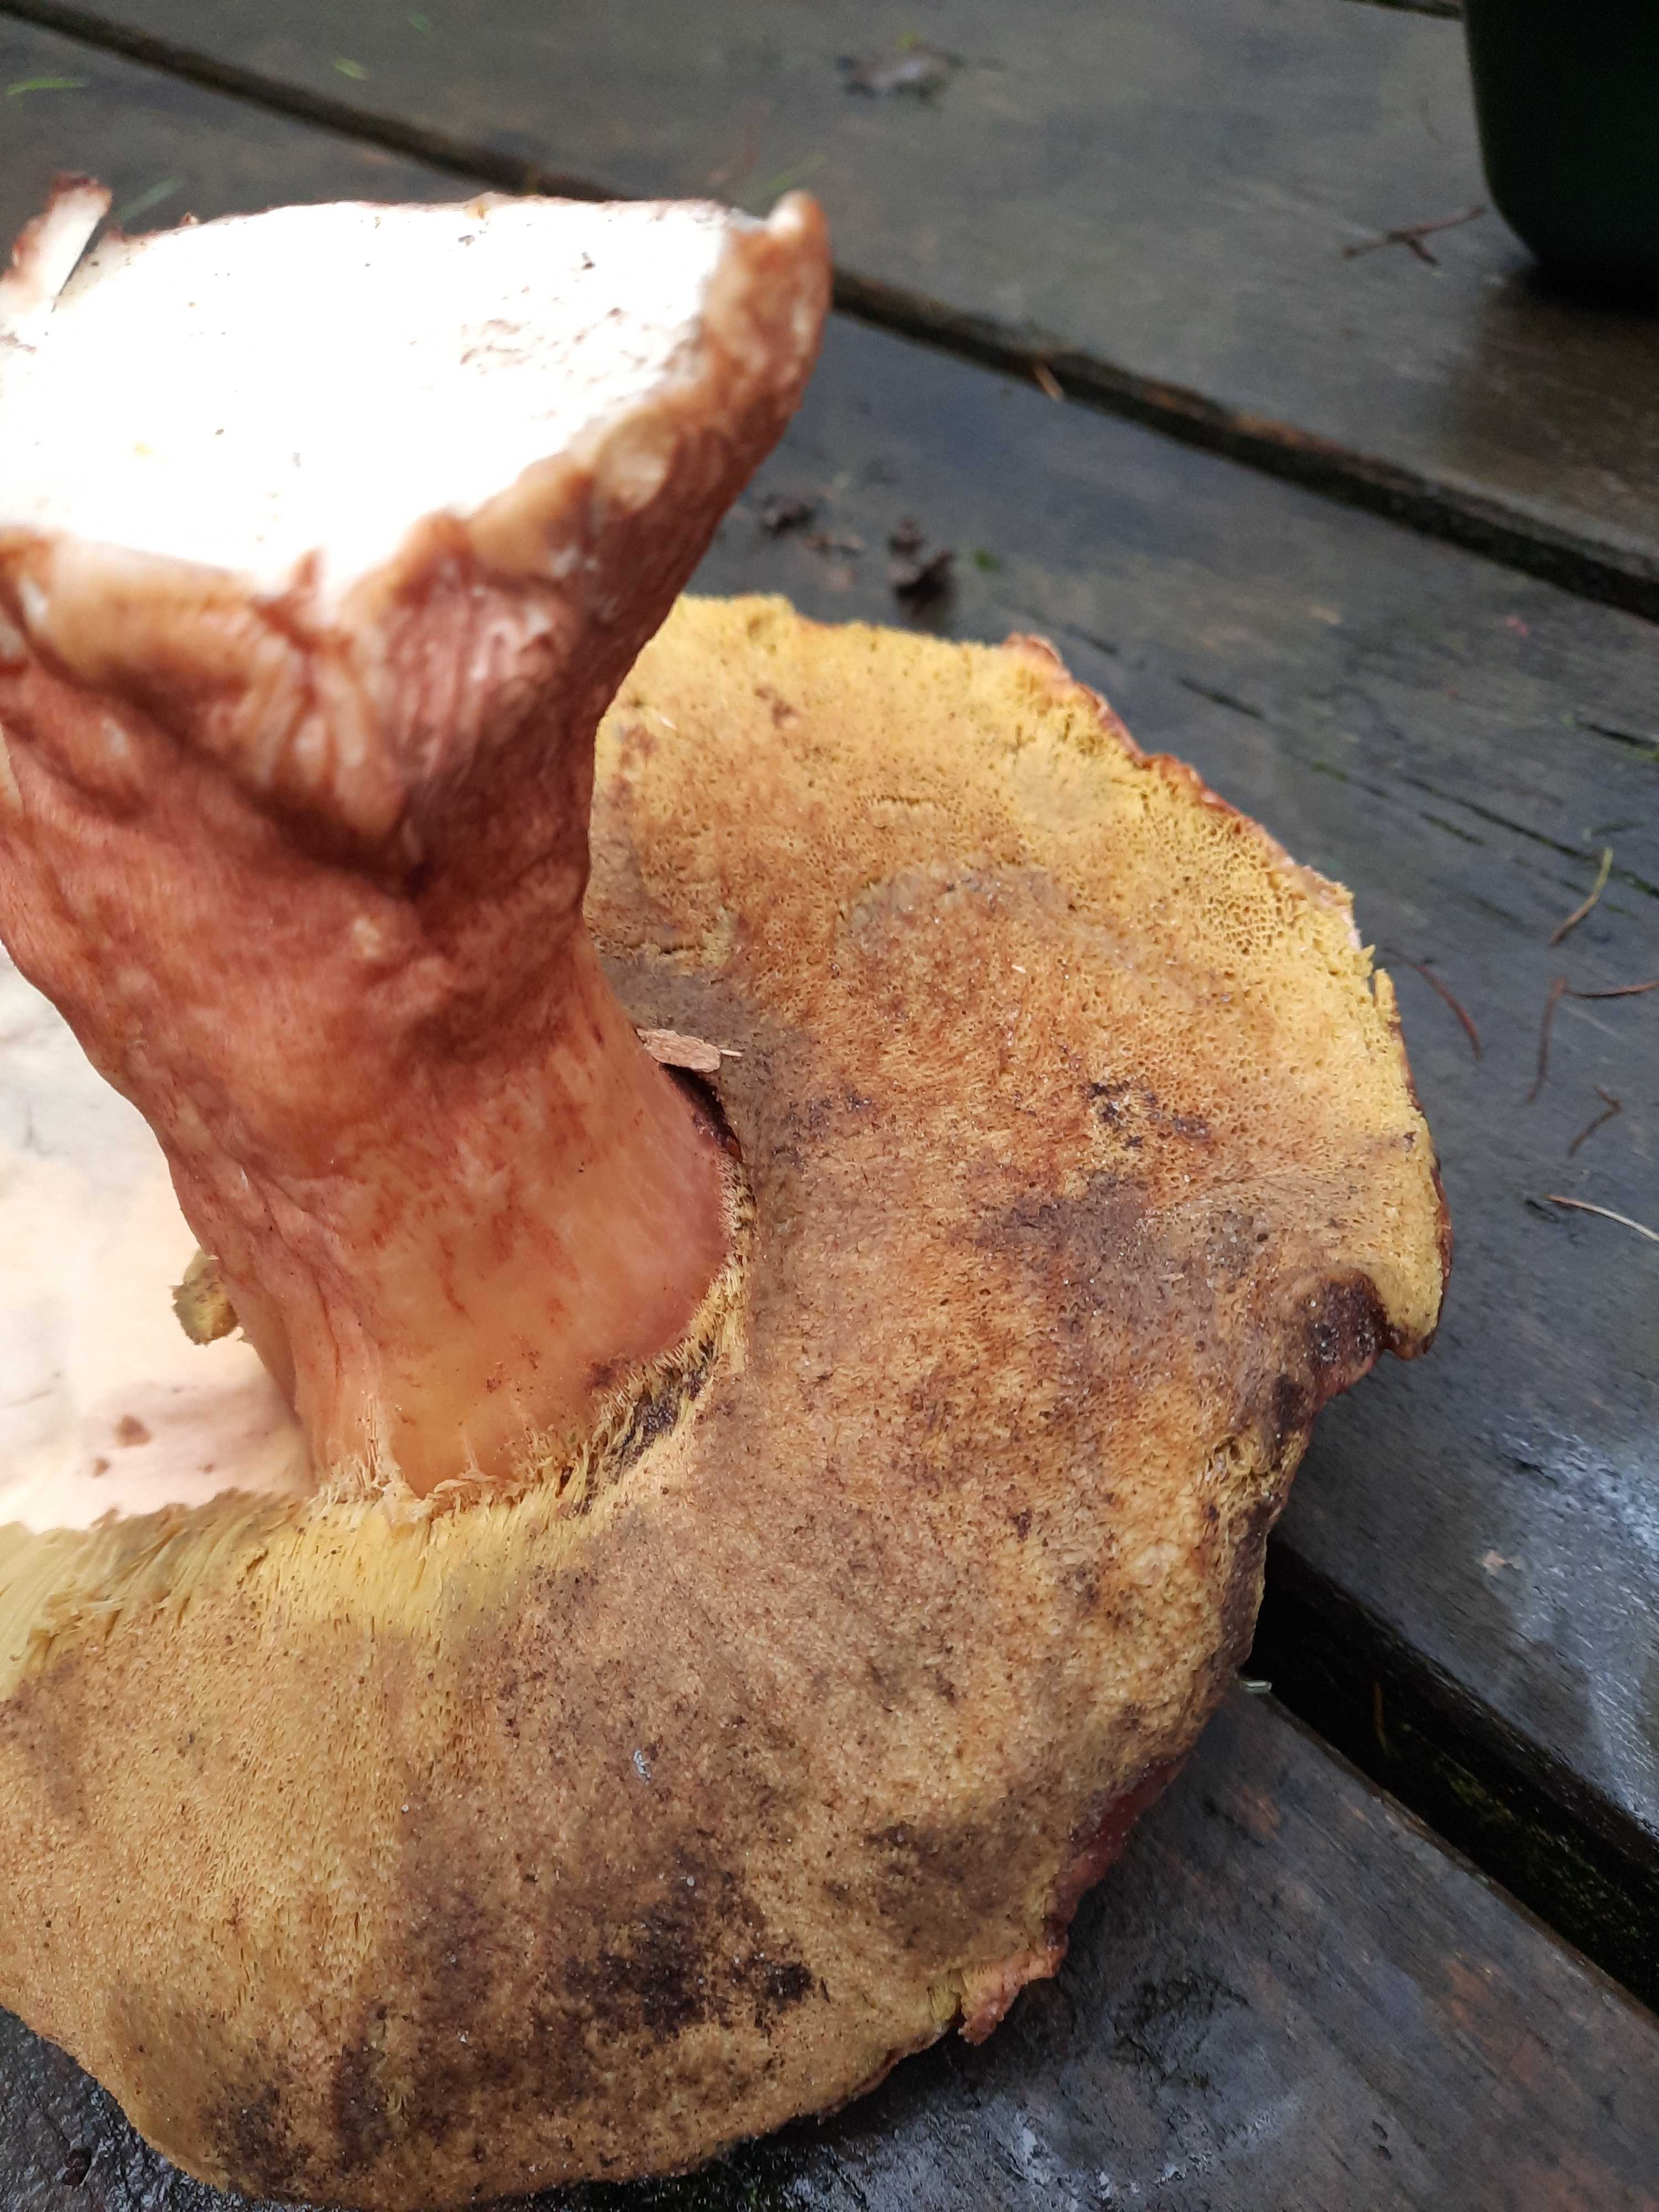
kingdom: Fungi
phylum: Basidiomycota
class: Agaricomycetes
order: Boletales
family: Boletaceae
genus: Boletus
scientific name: Boletus pinophilus
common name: rødbrun rørhat
